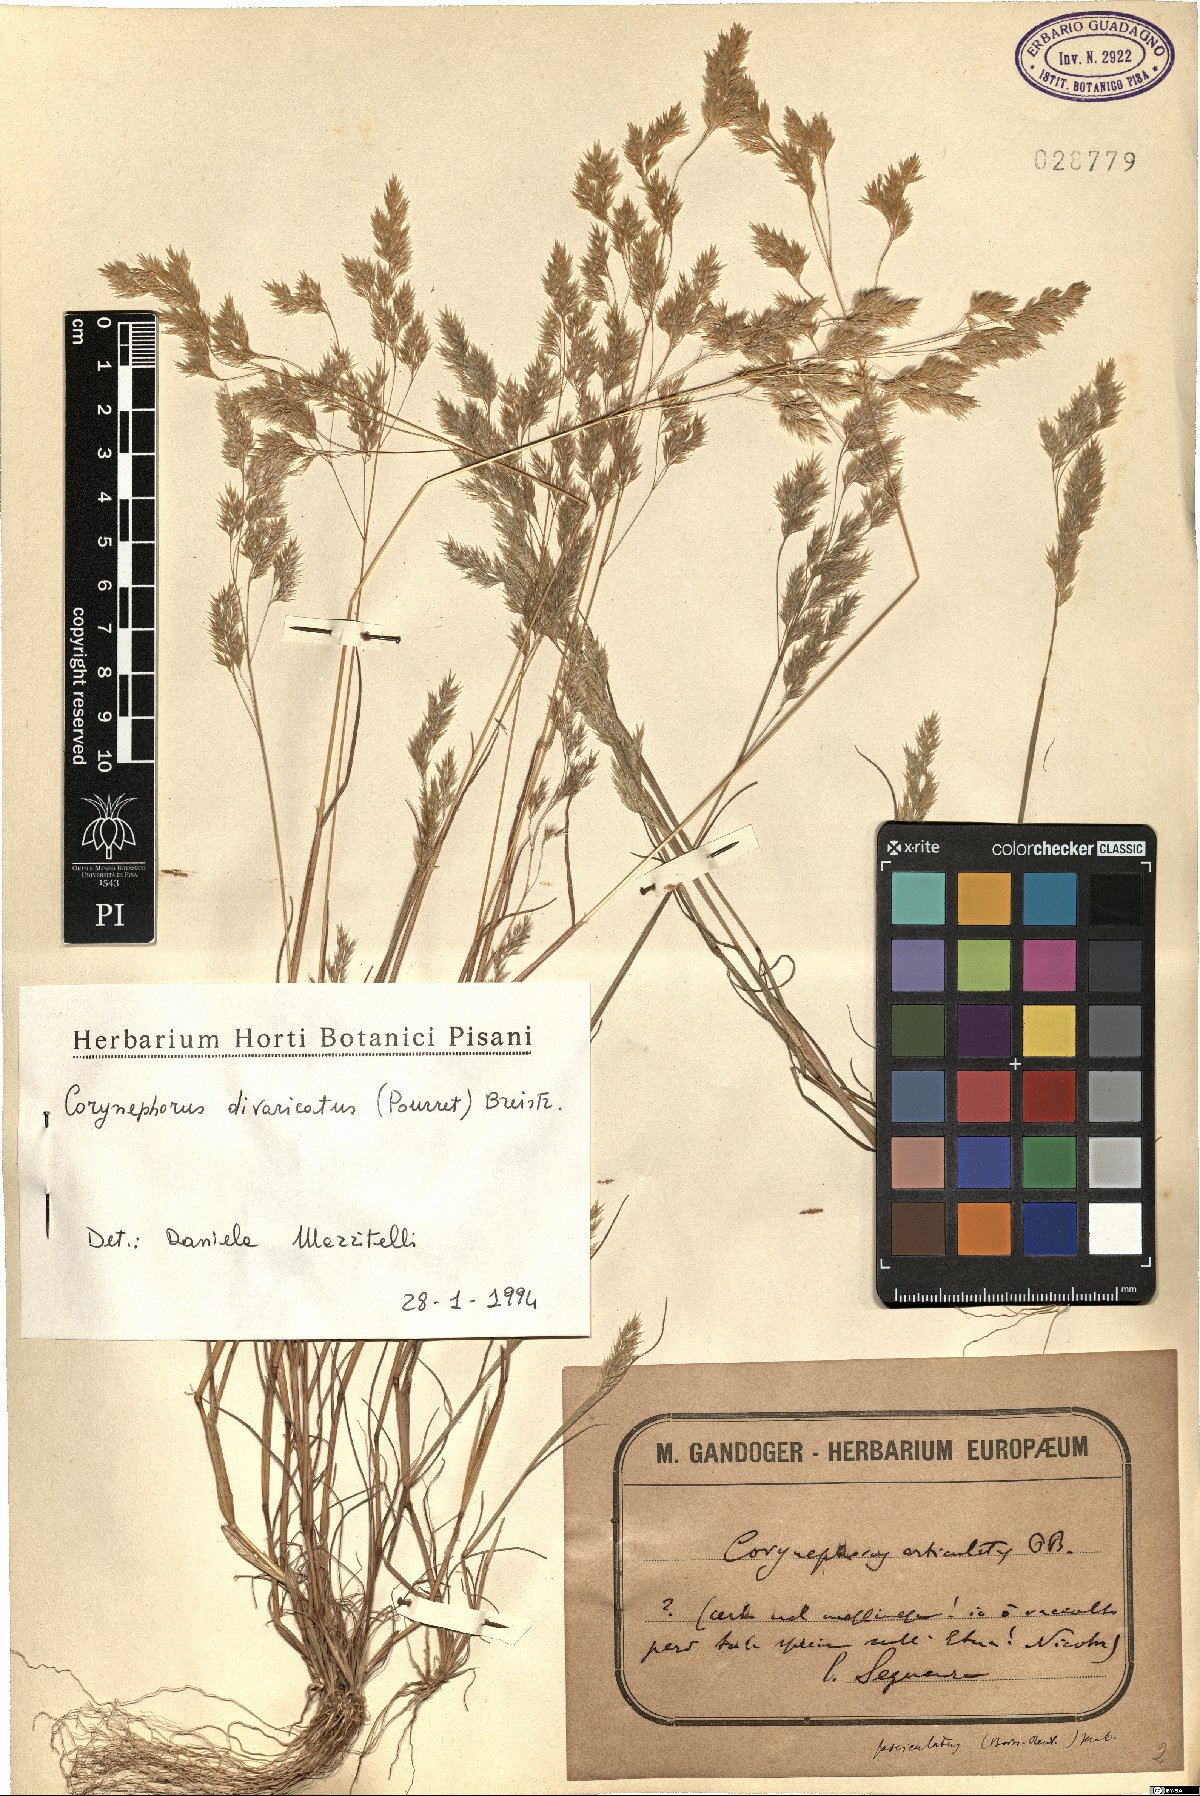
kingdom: Plantae
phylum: Tracheophyta
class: Liliopsida
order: Poales
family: Poaceae
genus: Corynephorus
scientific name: Corynephorus divaricatus
